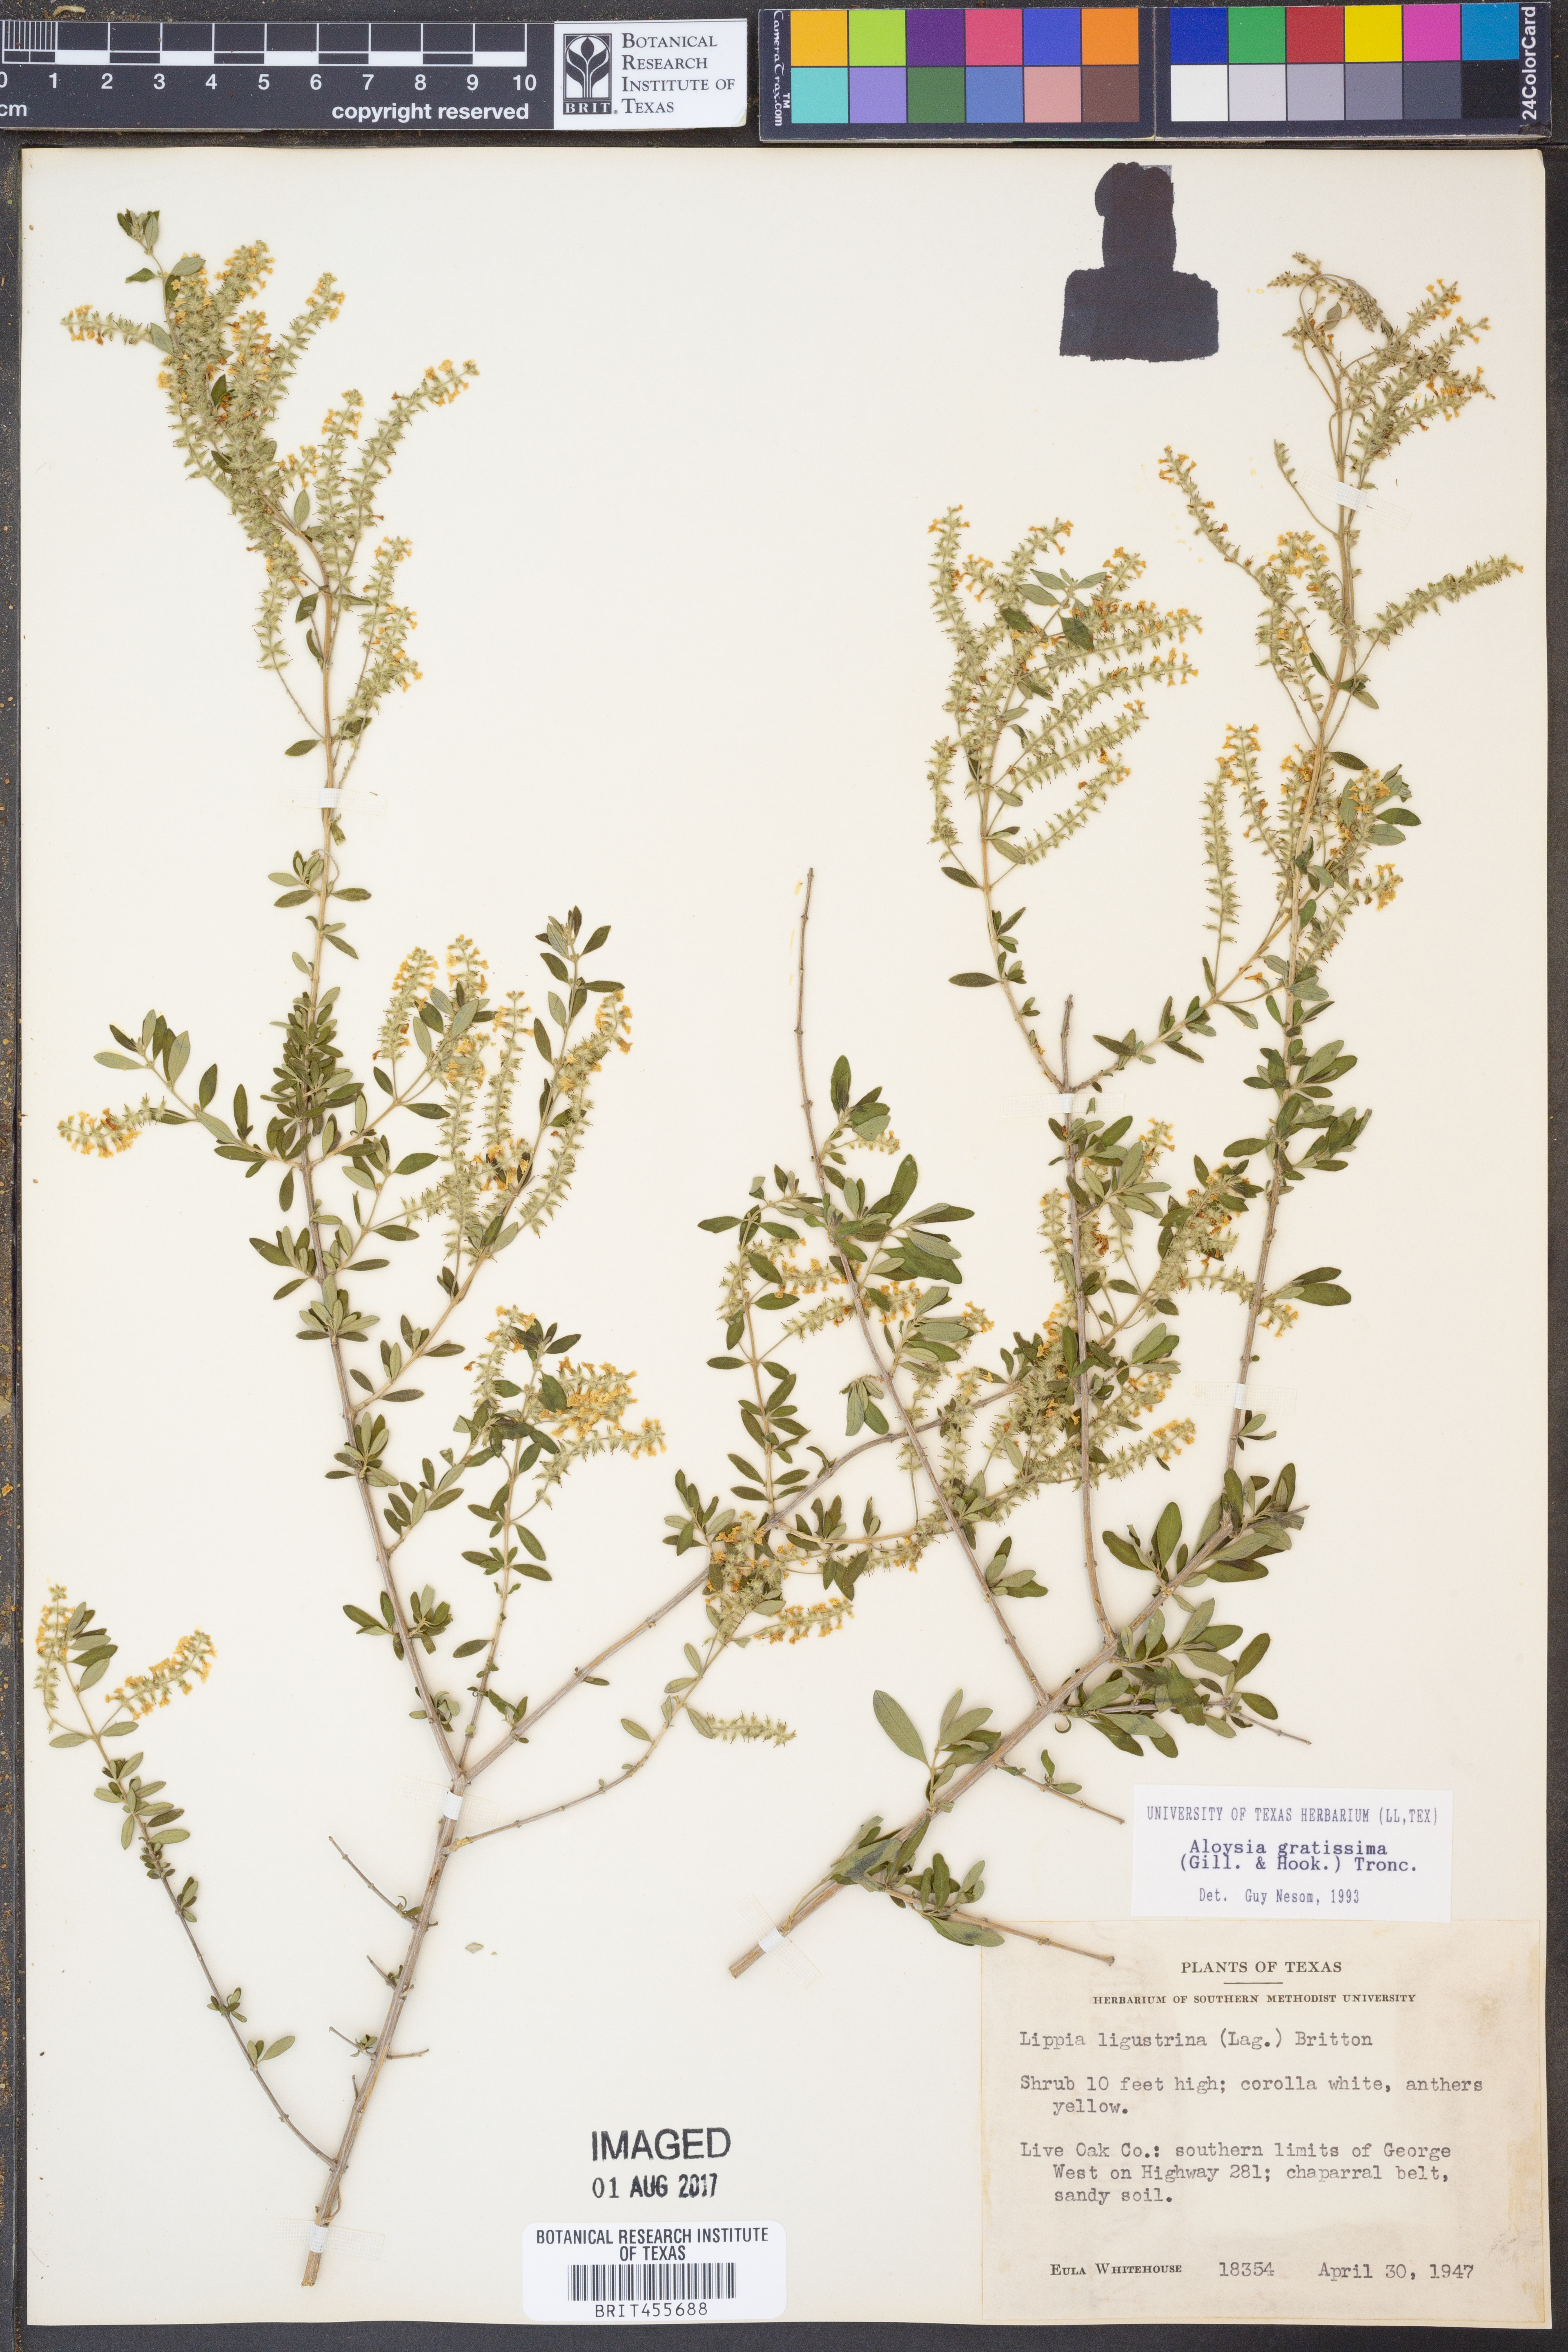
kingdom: Plantae
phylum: Tracheophyta
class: Magnoliopsida
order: Lamiales
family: Verbenaceae
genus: Aloysia
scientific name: Aloysia gratissima
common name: Common bee-brush
